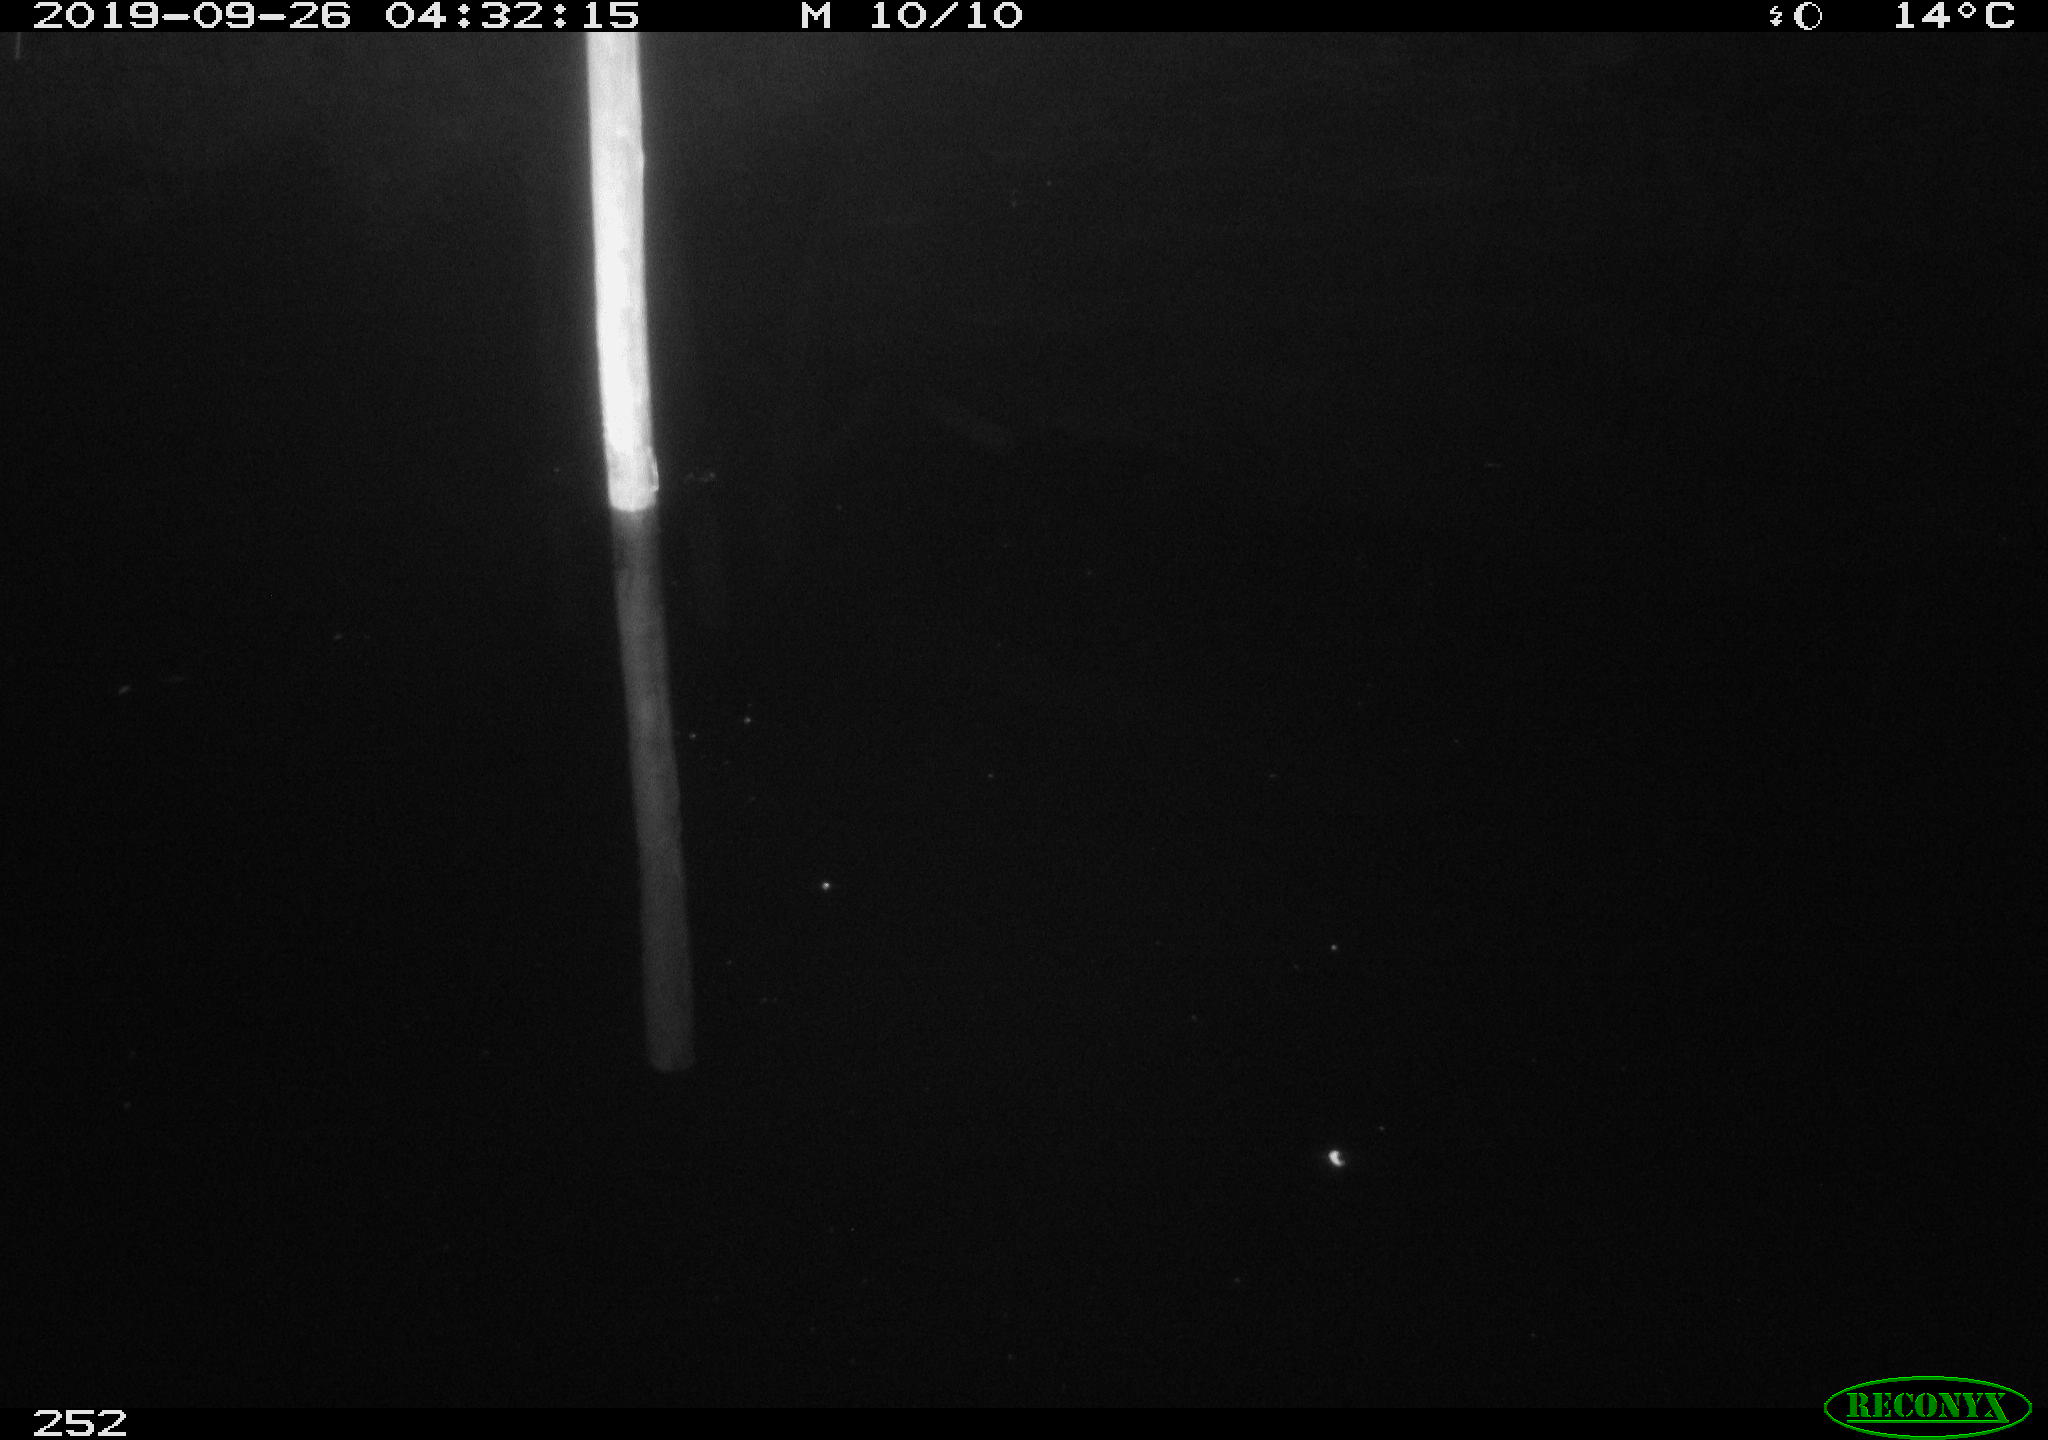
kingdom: Animalia
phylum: Chordata
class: Aves
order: Anseriformes
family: Anatidae
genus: Anas
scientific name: Anas platyrhynchos
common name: Mallard
